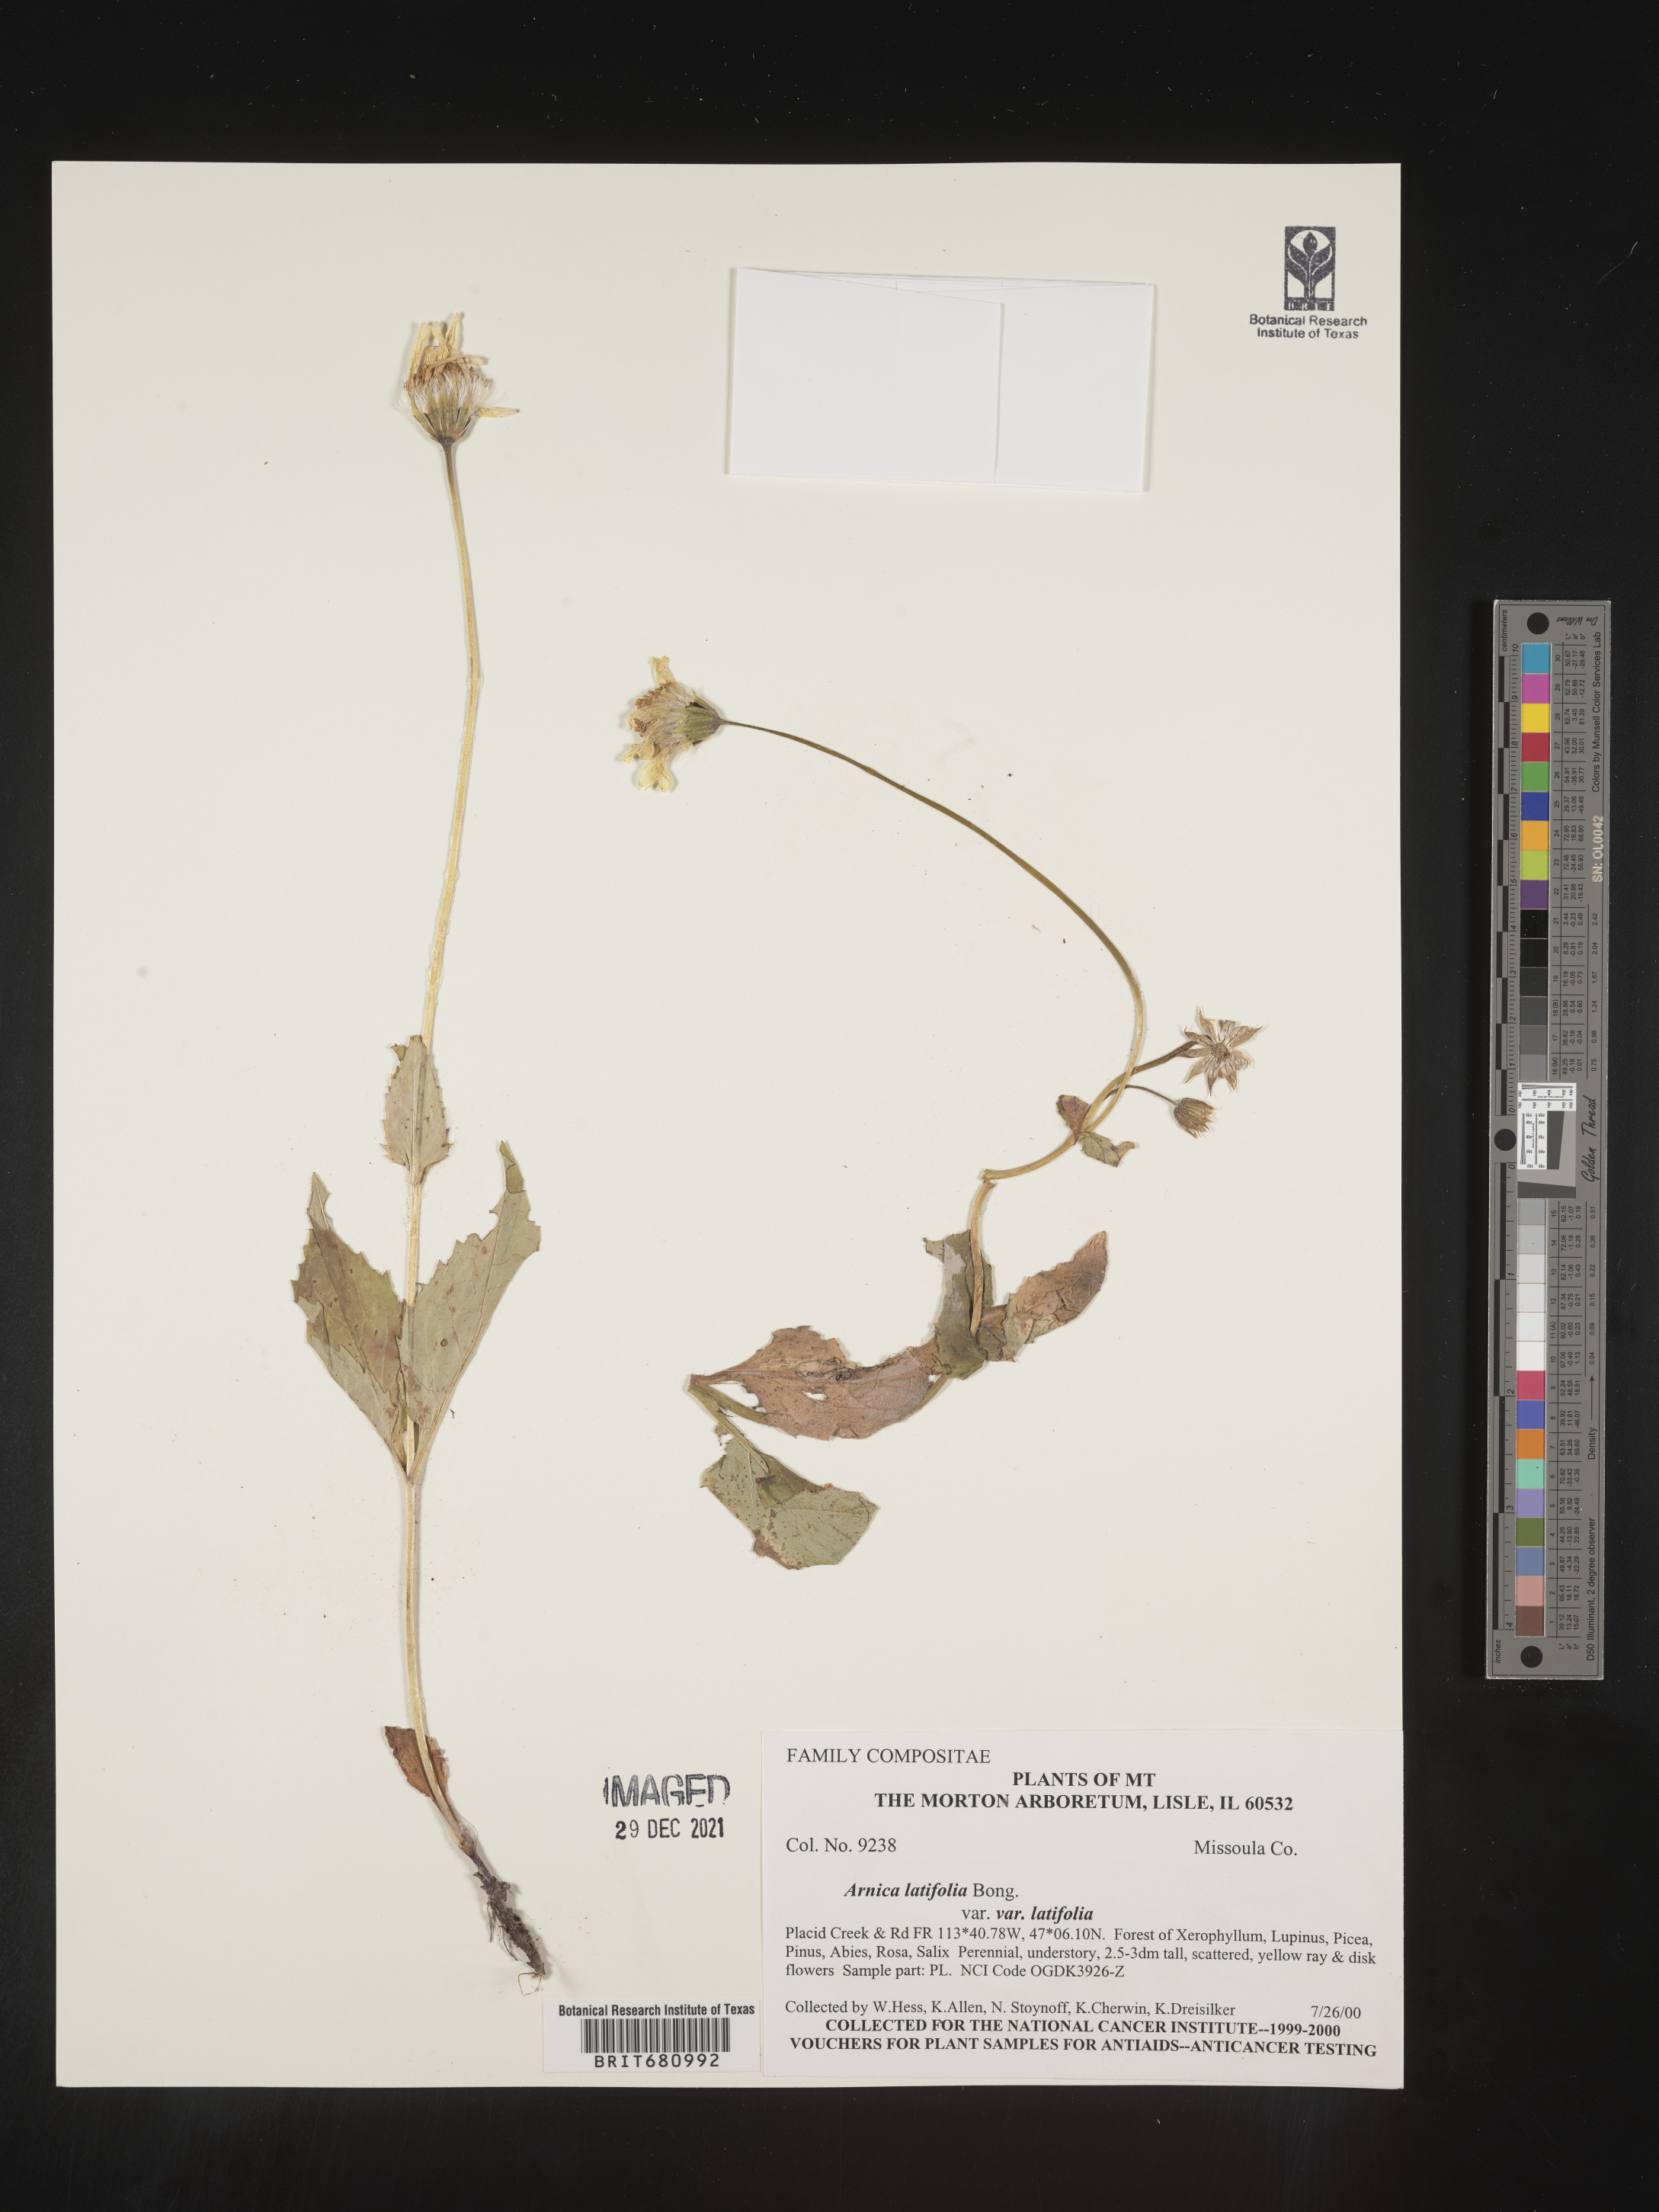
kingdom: Plantae
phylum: Tracheophyta
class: Magnoliopsida
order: Asterales
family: Asteraceae
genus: Arnica
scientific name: Arnica latifolia
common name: Arnica
